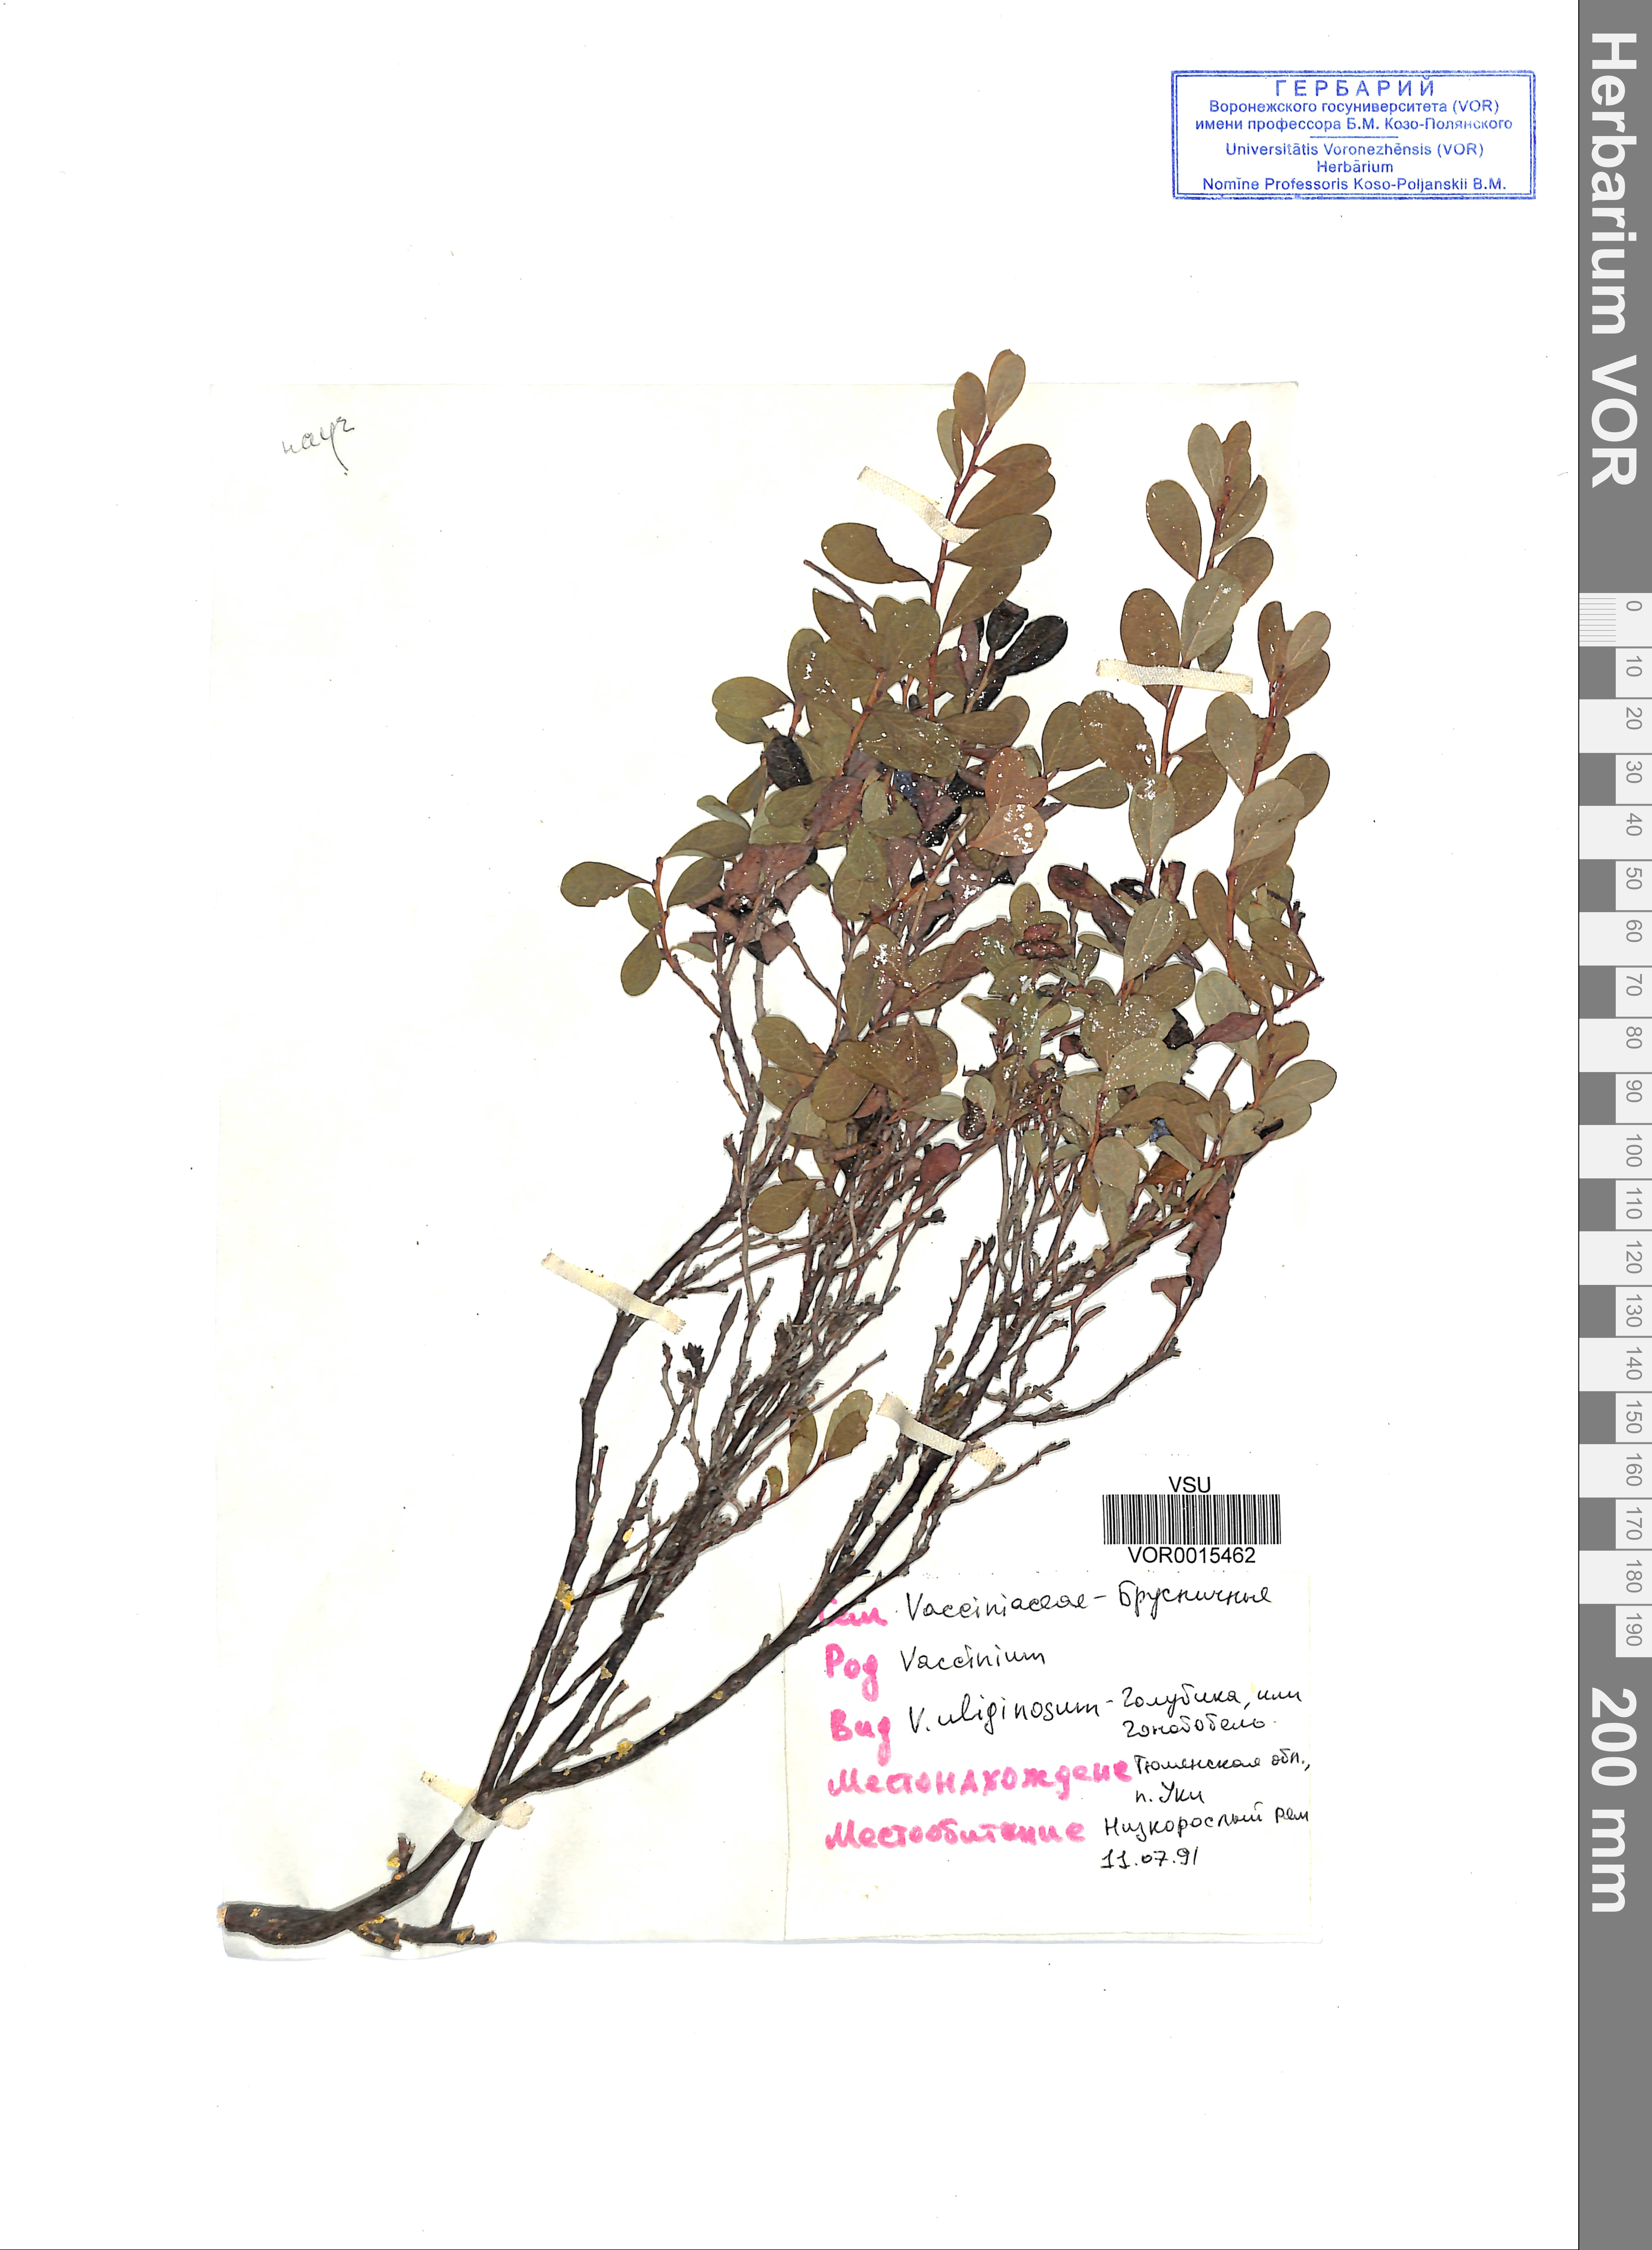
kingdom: Plantae
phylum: Tracheophyta
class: Magnoliopsida
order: Ericales
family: Ericaceae
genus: Vaccinium
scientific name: Vaccinium uliginosum
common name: Bog bilberry
